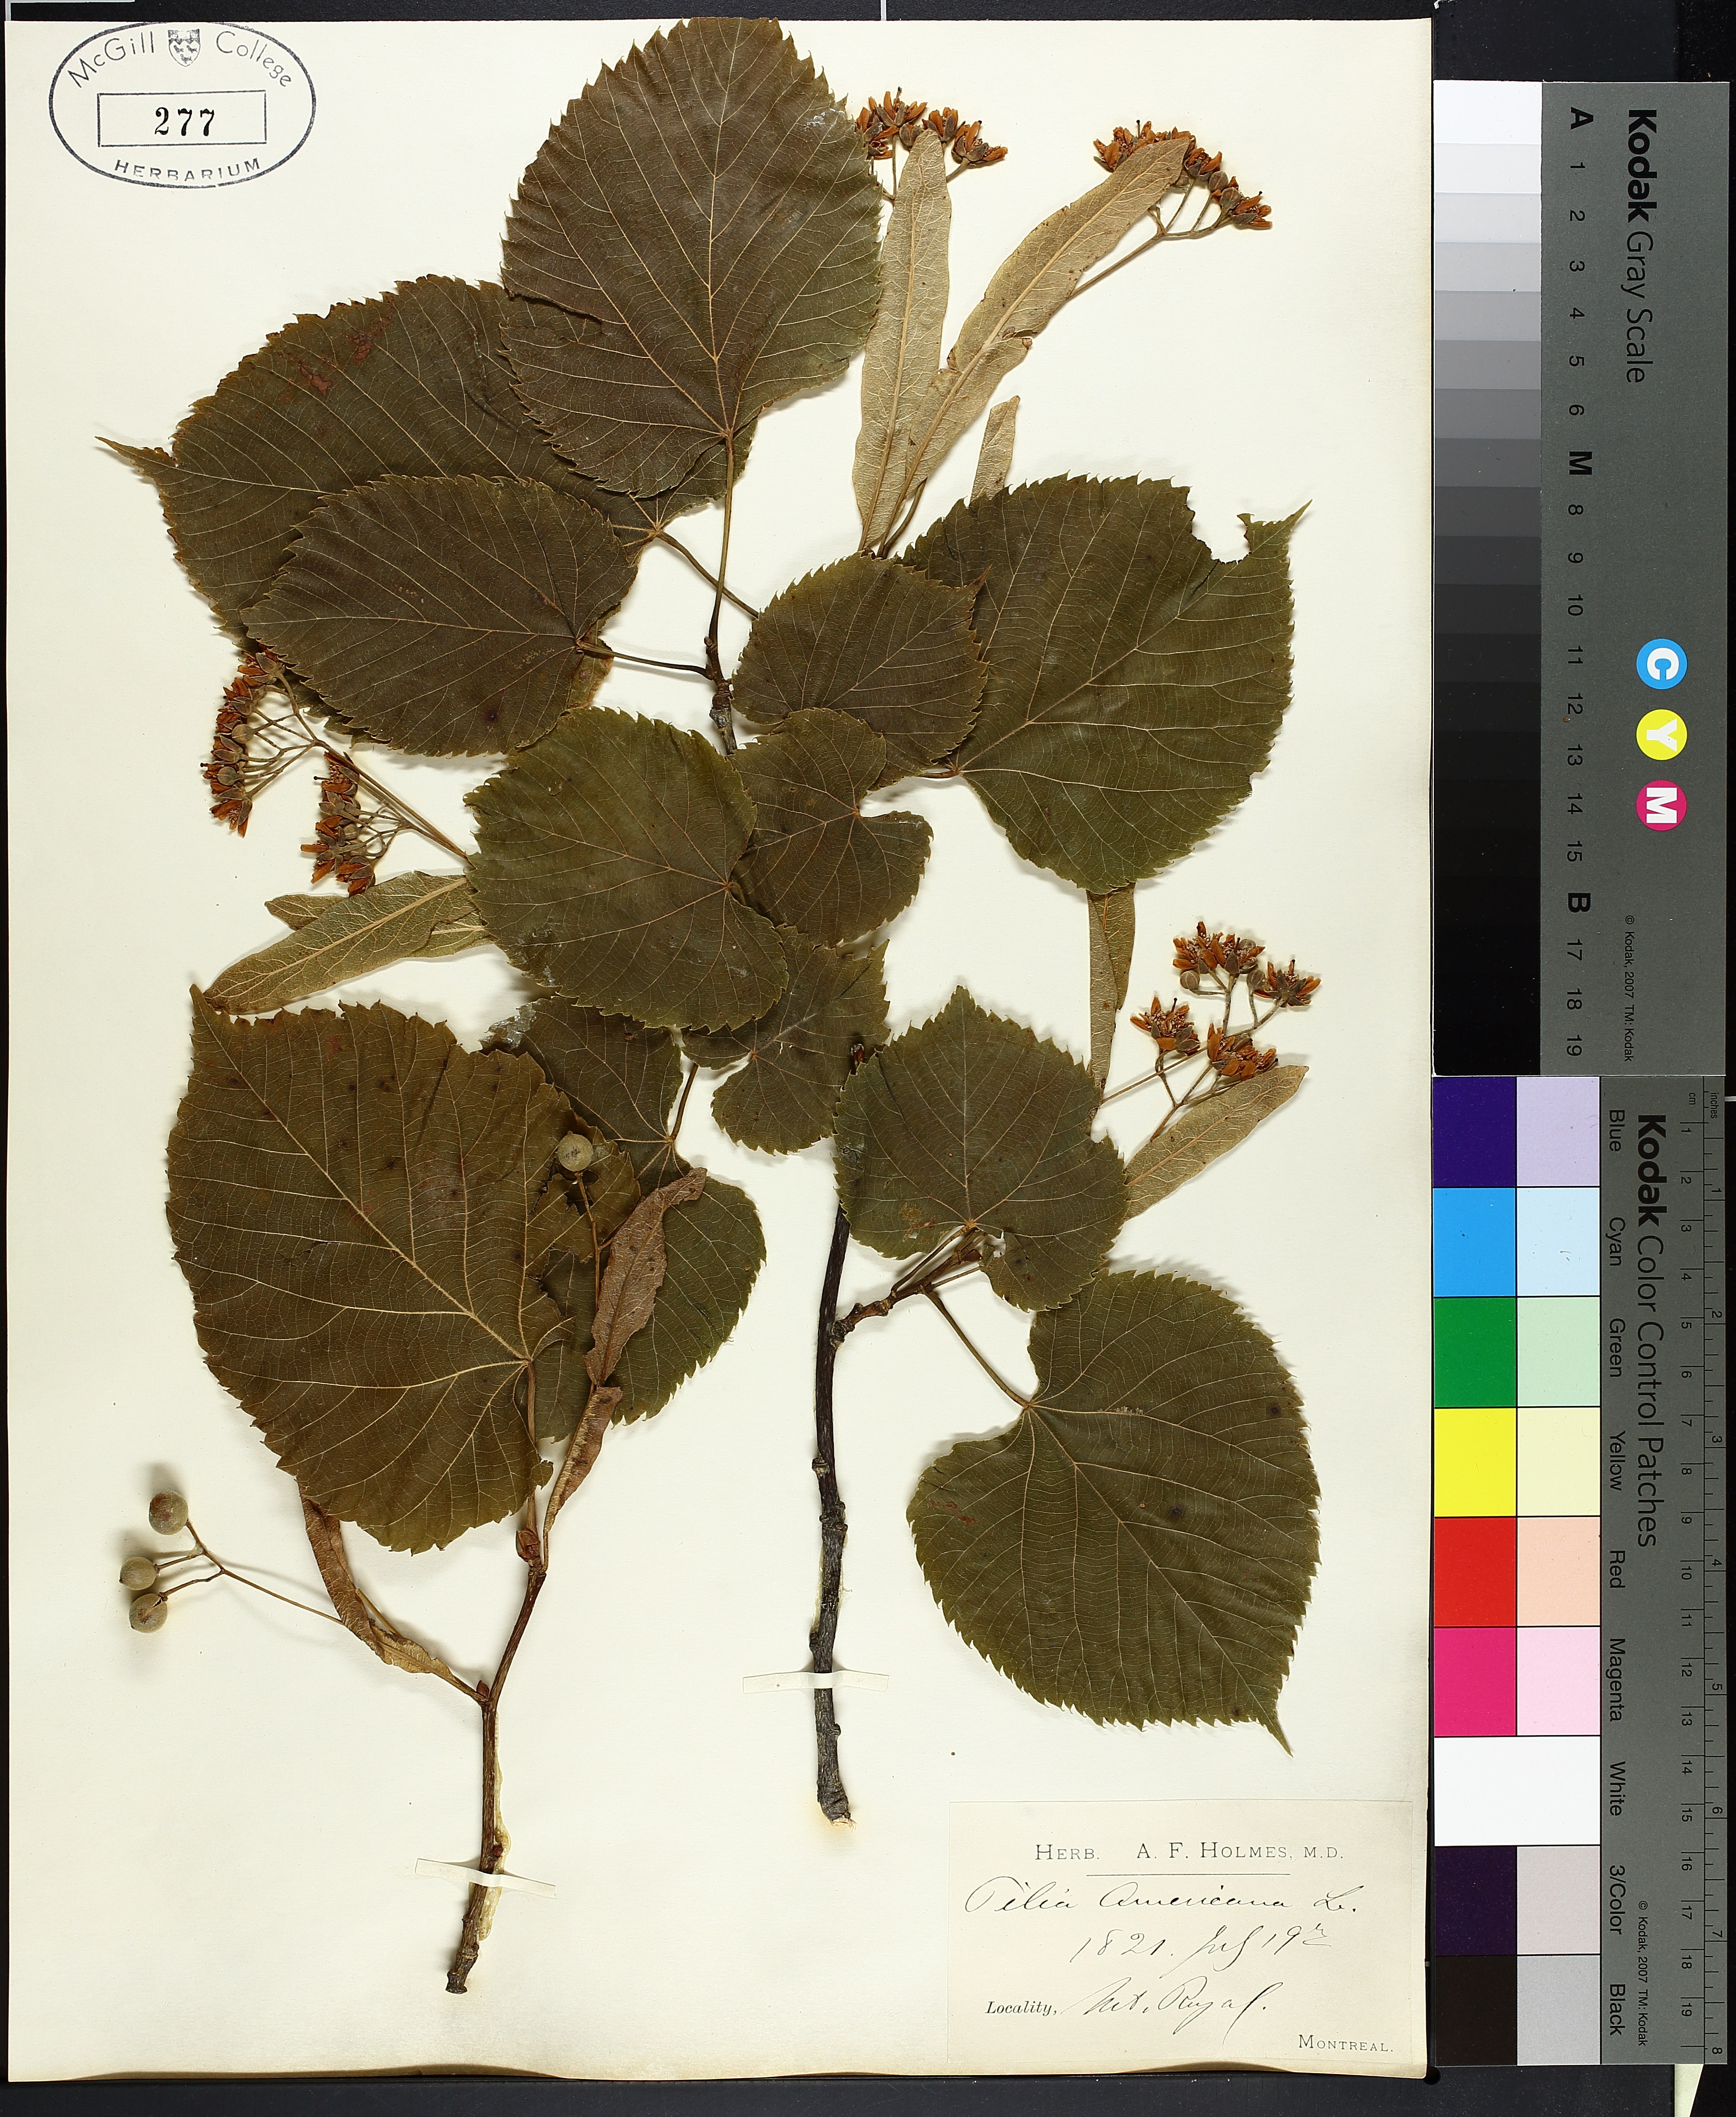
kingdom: Plantae
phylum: Tracheophyta
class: Magnoliopsida
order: Malvales
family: Malvaceae
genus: Tilia
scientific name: Tilia americana
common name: Basswood
